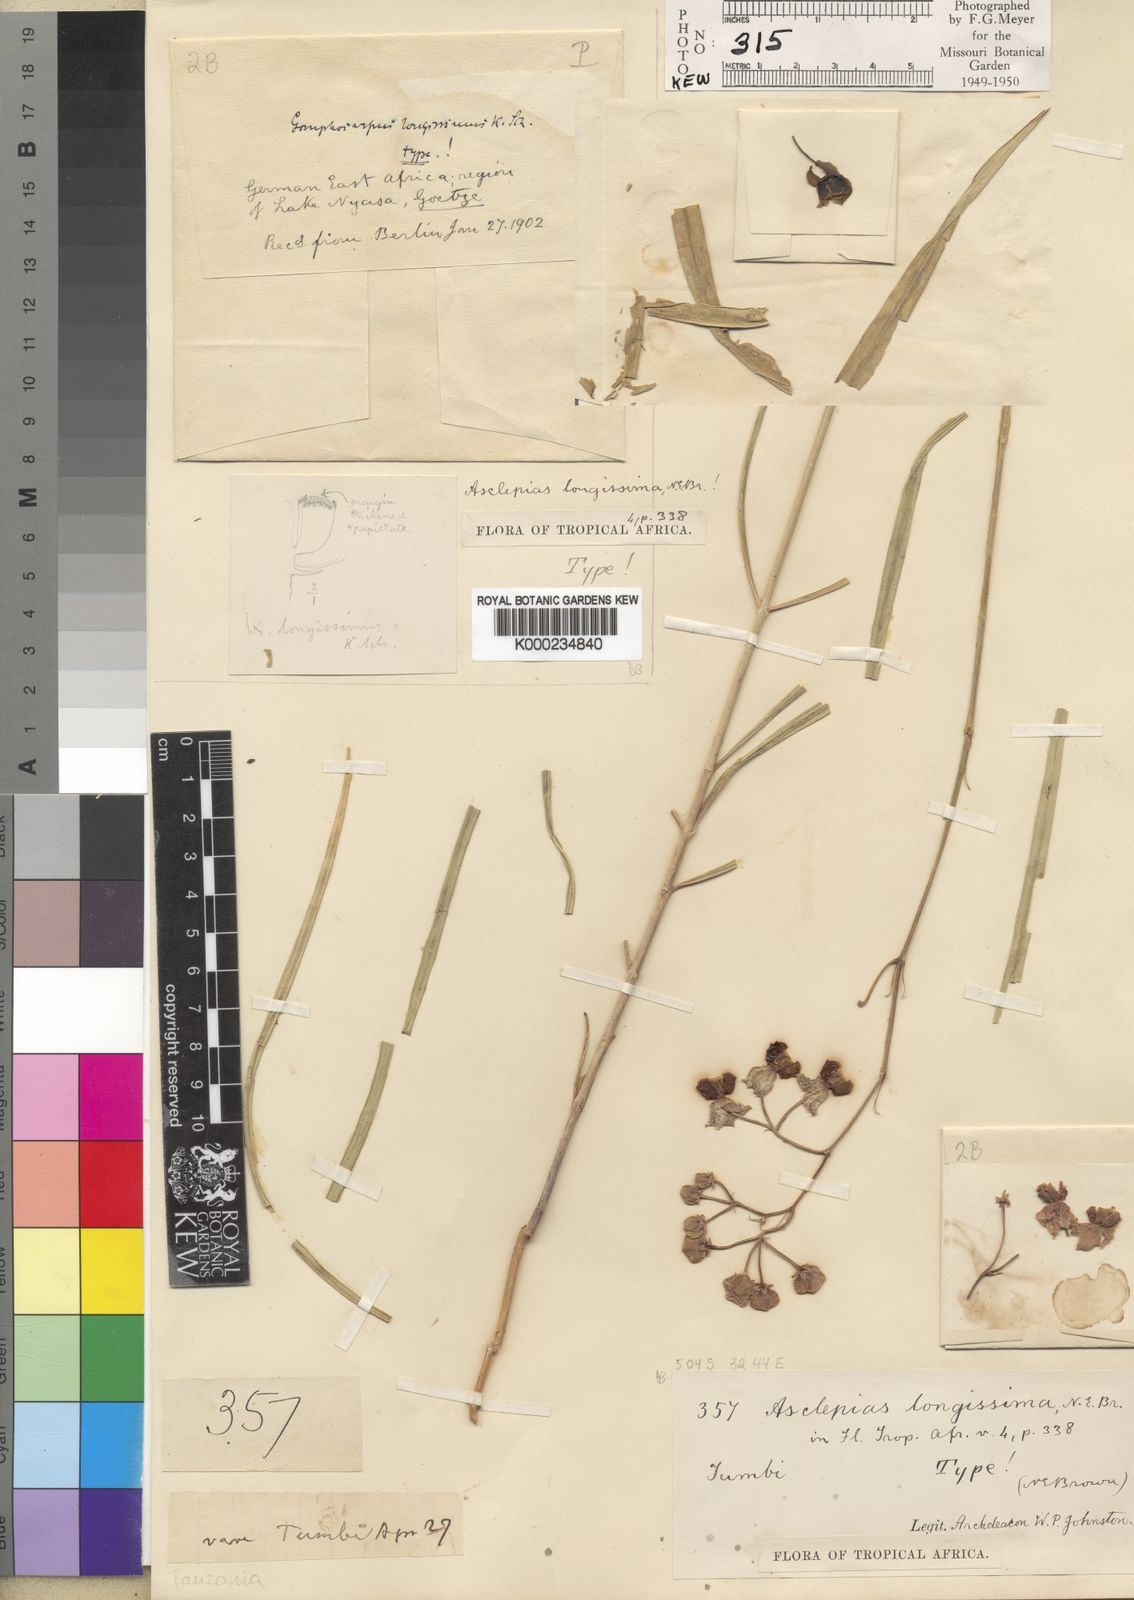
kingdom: Plantae
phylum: Tracheophyta
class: Magnoliopsida
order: Gentianales
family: Apocynaceae
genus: Asclepias
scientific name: Asclepias longissima
